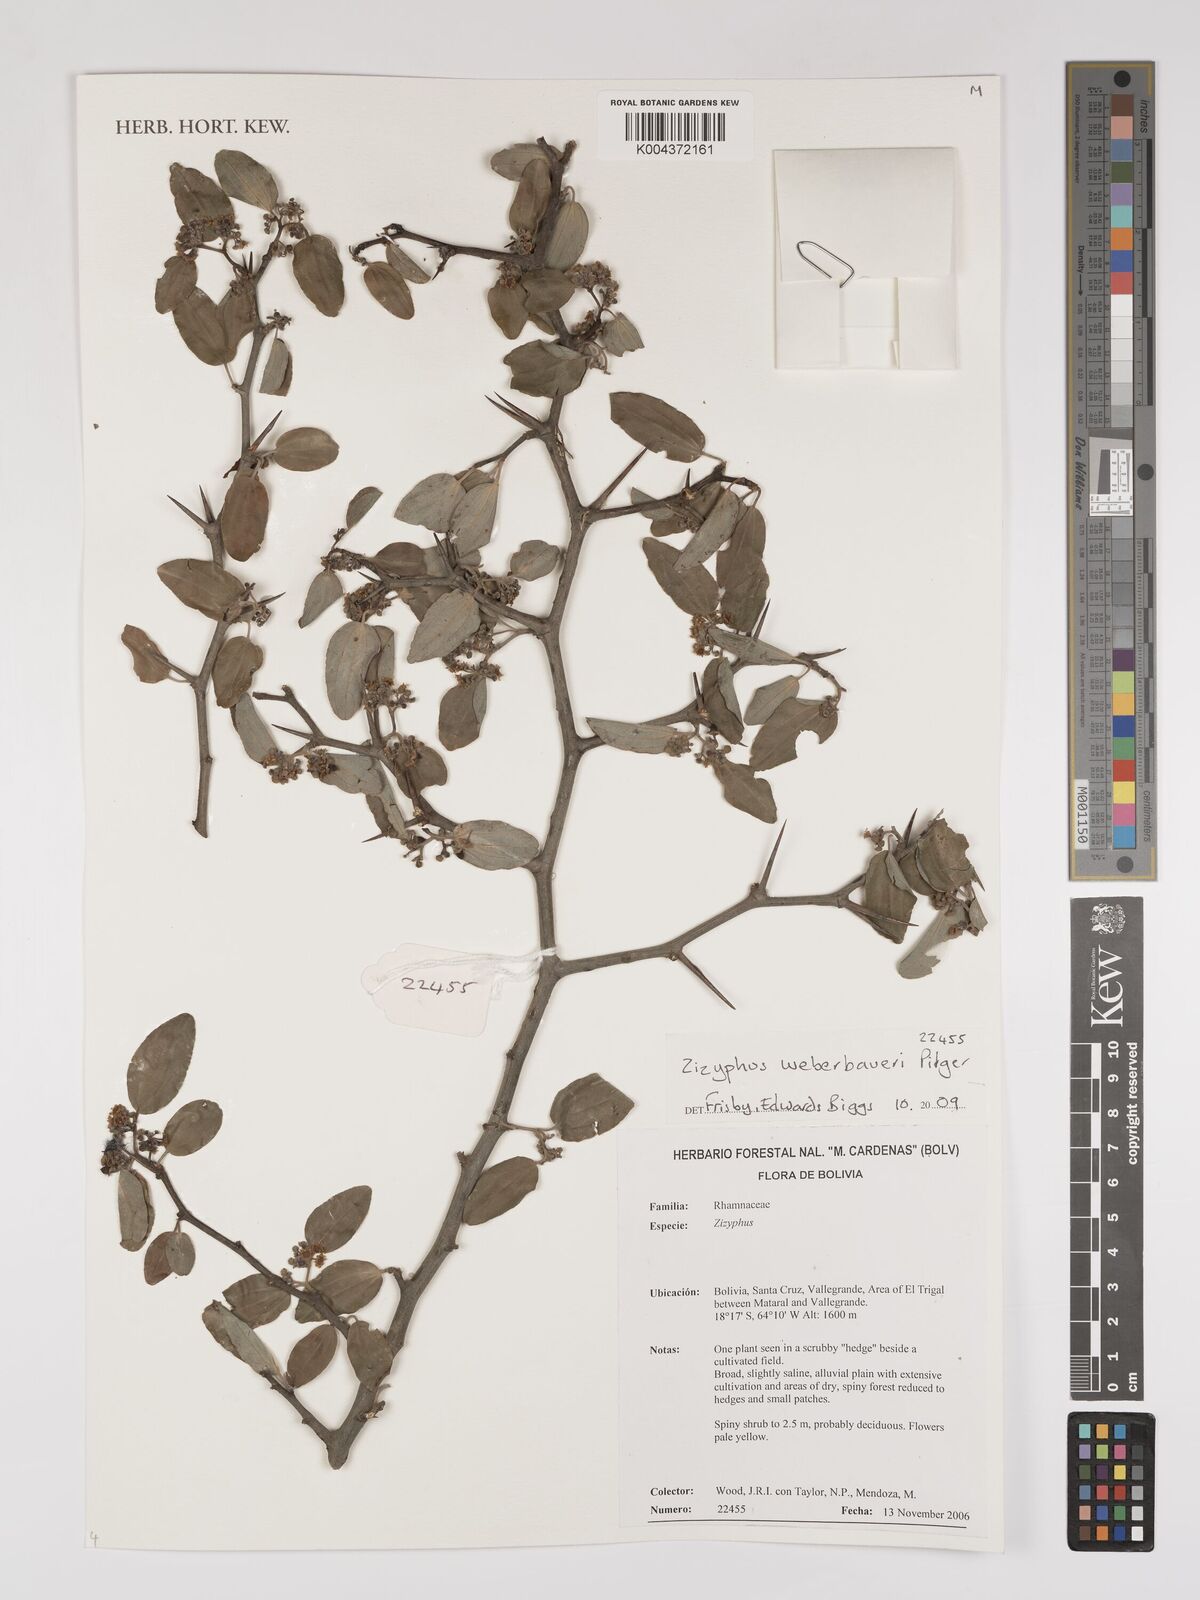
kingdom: Plantae
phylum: Tracheophyta
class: Magnoliopsida
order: Rosales
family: Rhamnaceae
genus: Sarcomphalus
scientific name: Sarcomphalus mistol
